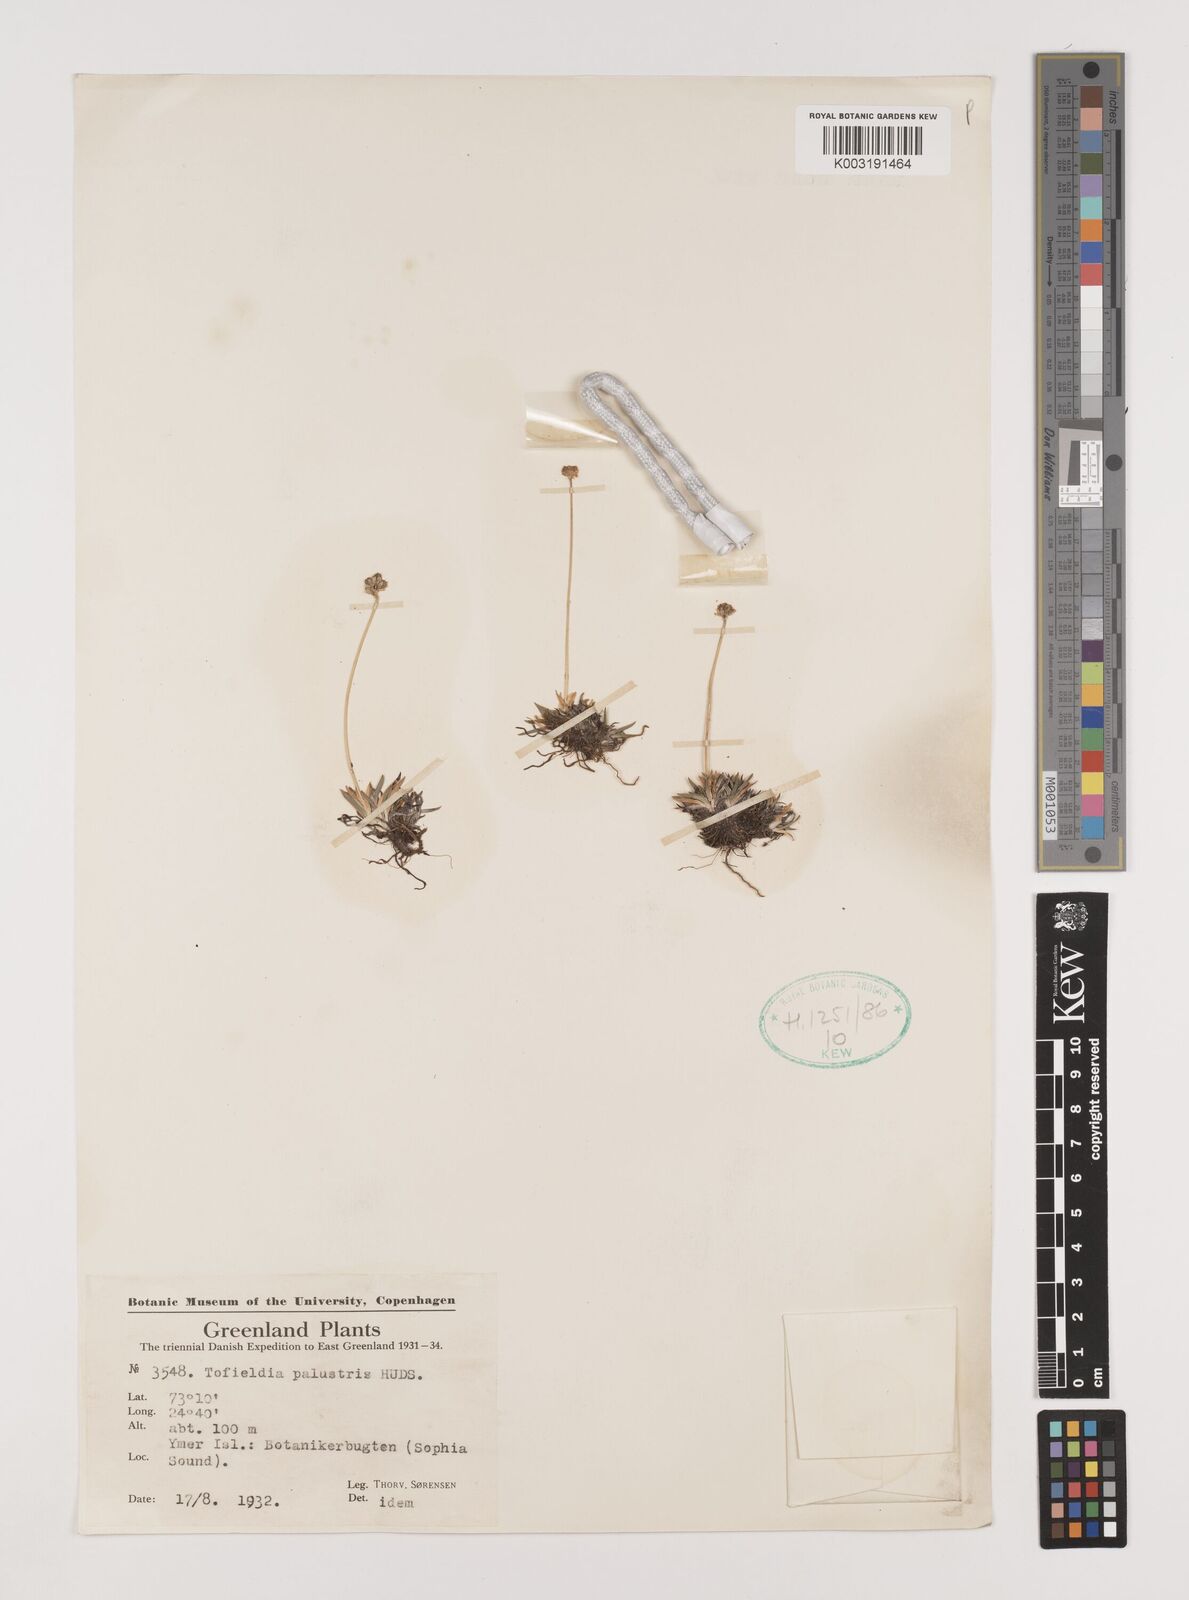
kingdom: Plantae
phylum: Tracheophyta
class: Liliopsida
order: Alismatales
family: Tofieldiaceae
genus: Tofieldia
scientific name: Tofieldia calyculata
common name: German-asphodel
